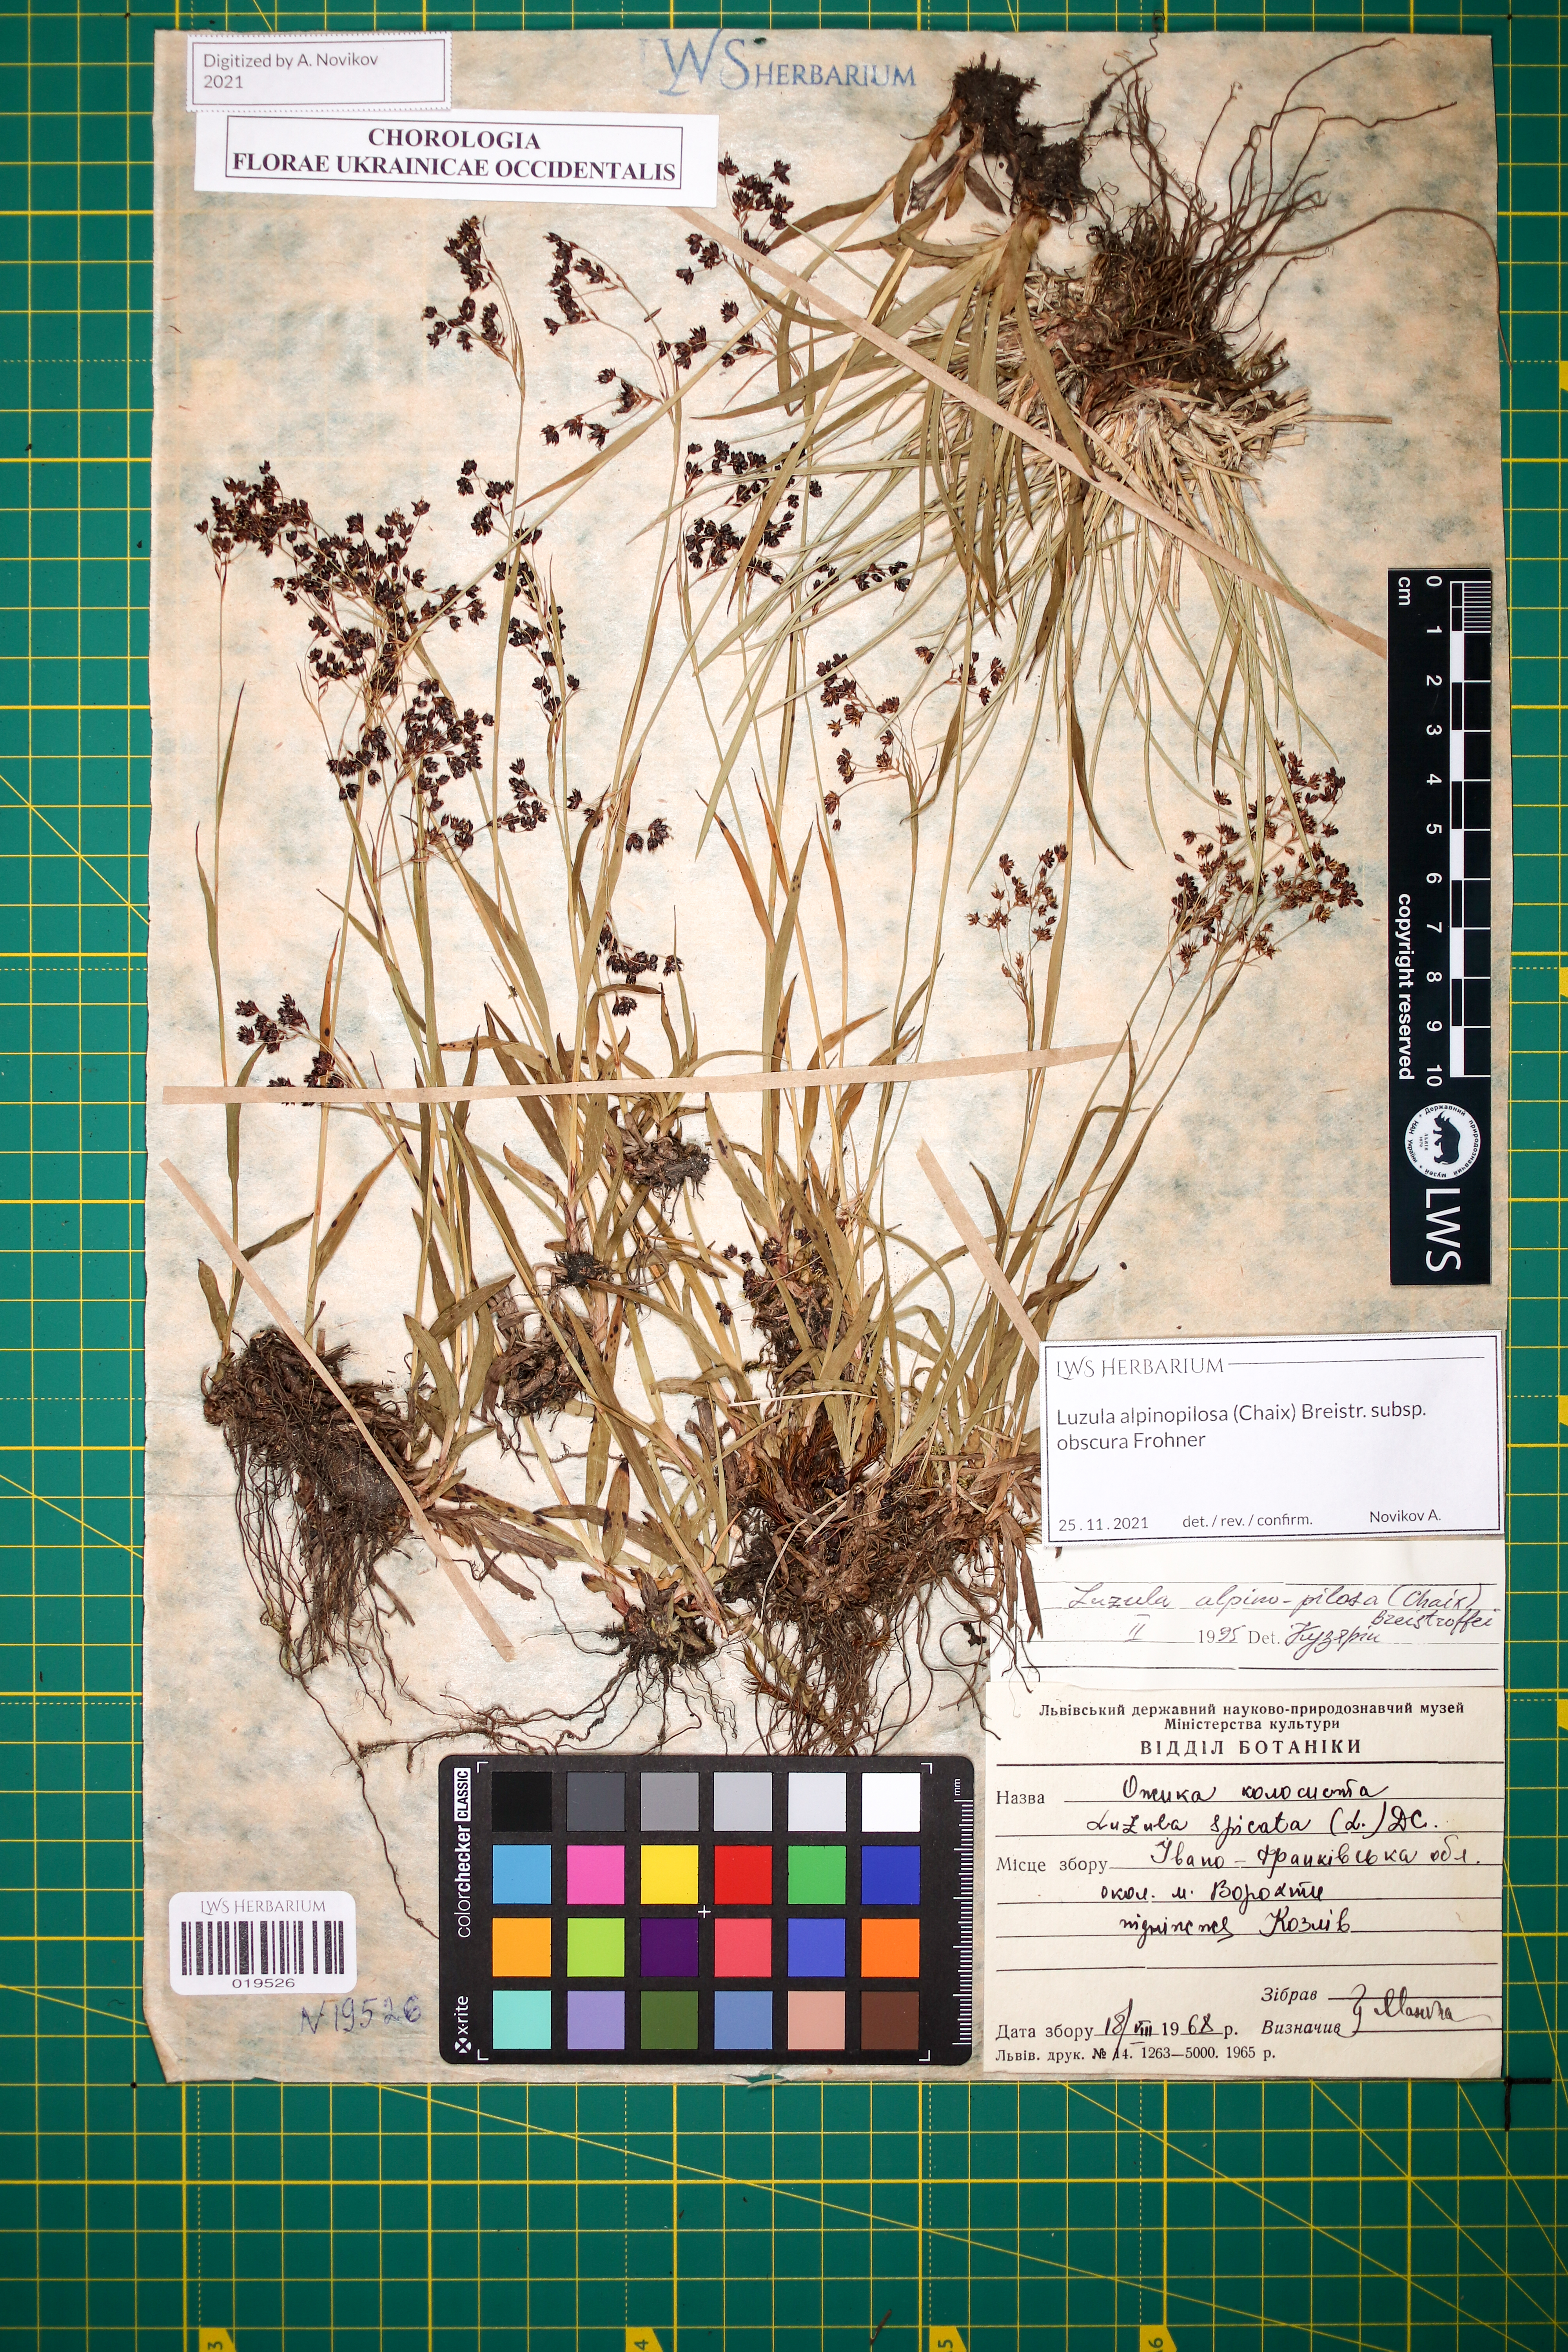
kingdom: Plantae
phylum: Tracheophyta
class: Liliopsida
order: Poales
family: Juncaceae
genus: Luzula
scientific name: Luzula alpinopilosa
